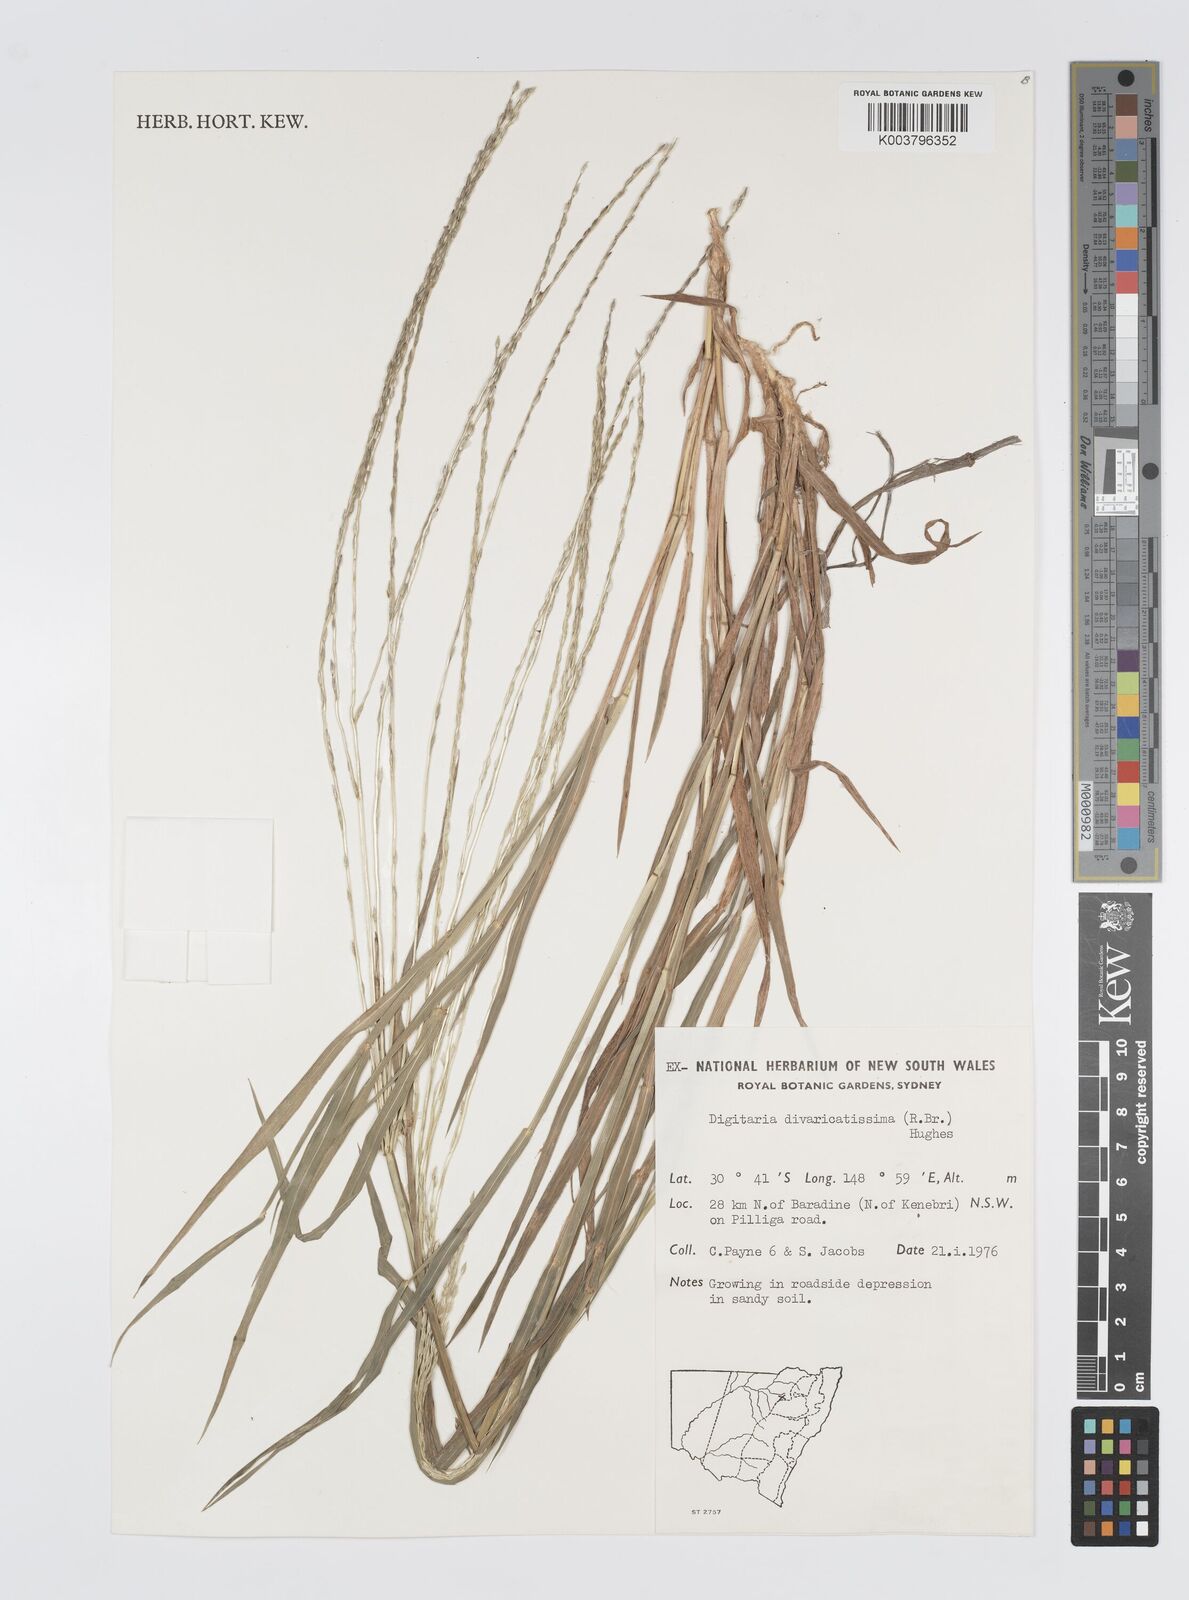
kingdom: Plantae
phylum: Tracheophyta
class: Liliopsida
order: Poales
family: Poaceae
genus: Digitaria
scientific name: Digitaria divaricatissima
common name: Crabgrass
